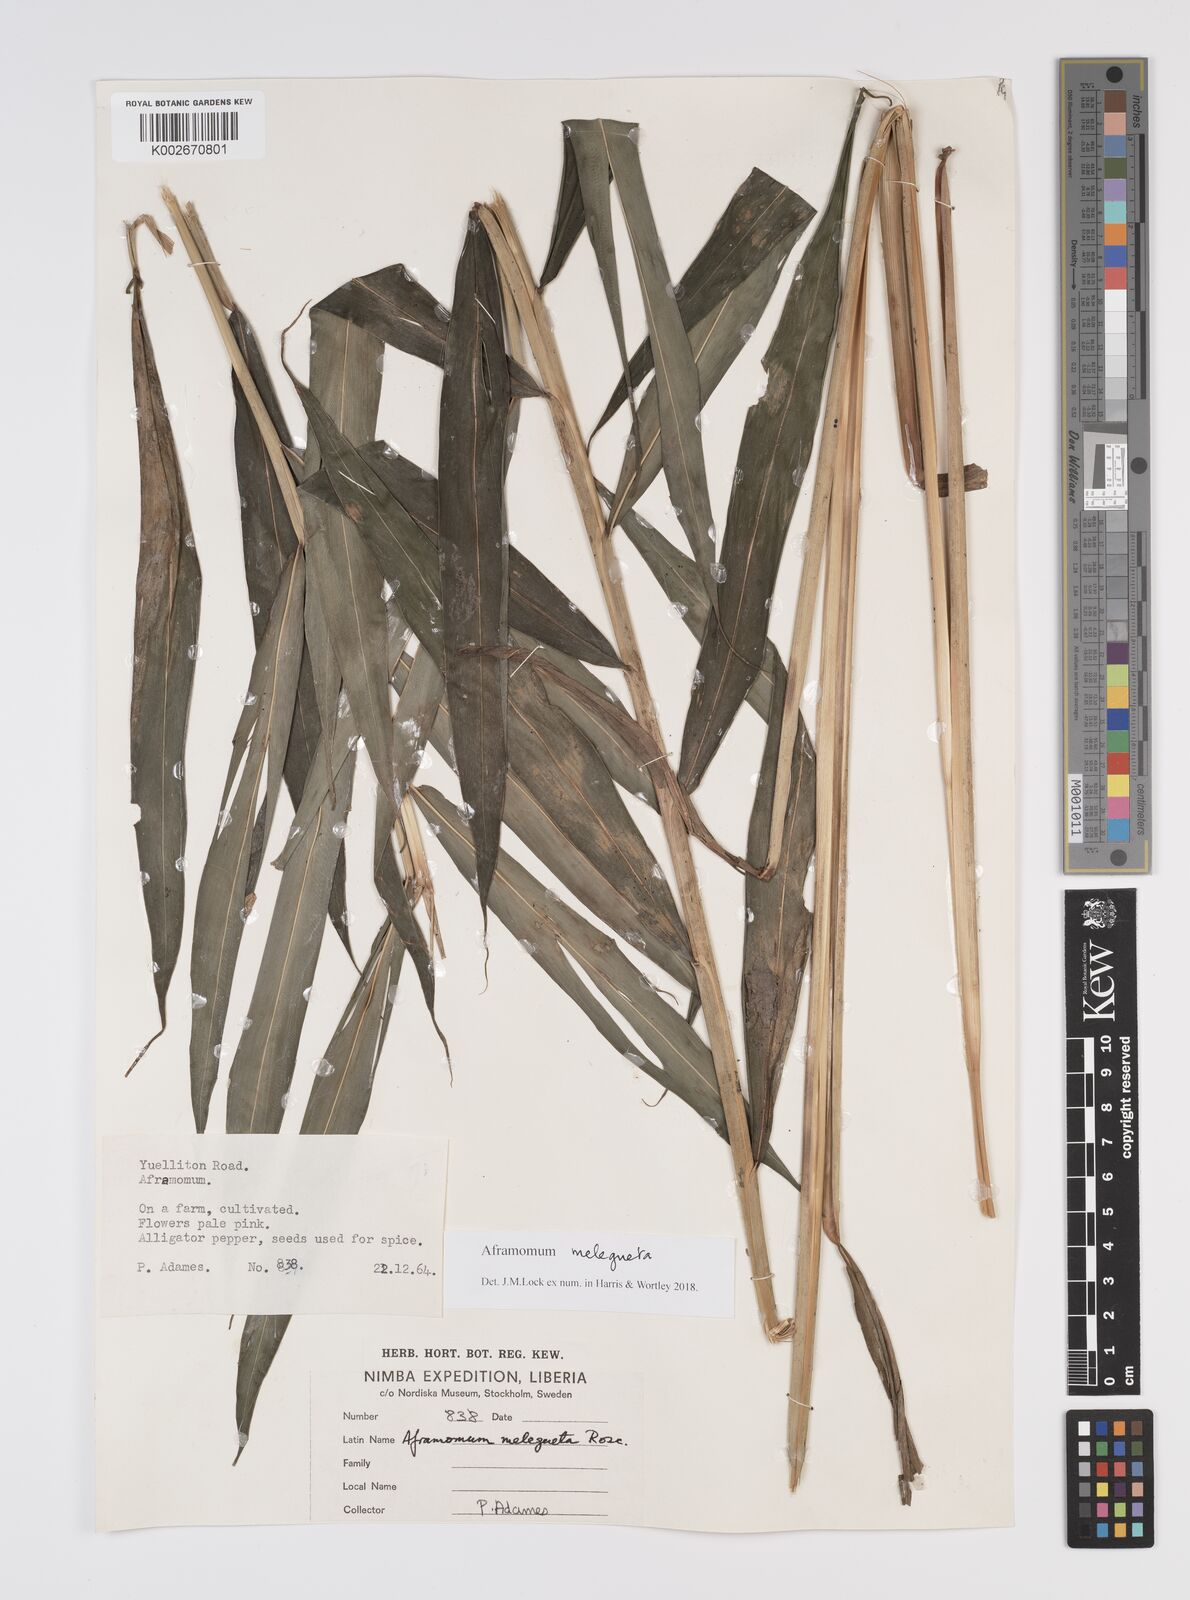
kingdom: Plantae
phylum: Tracheophyta
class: Liliopsida
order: Zingiberales
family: Zingiberaceae
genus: Aframomum
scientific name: Aframomum melegueta
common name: Grains of paradise
